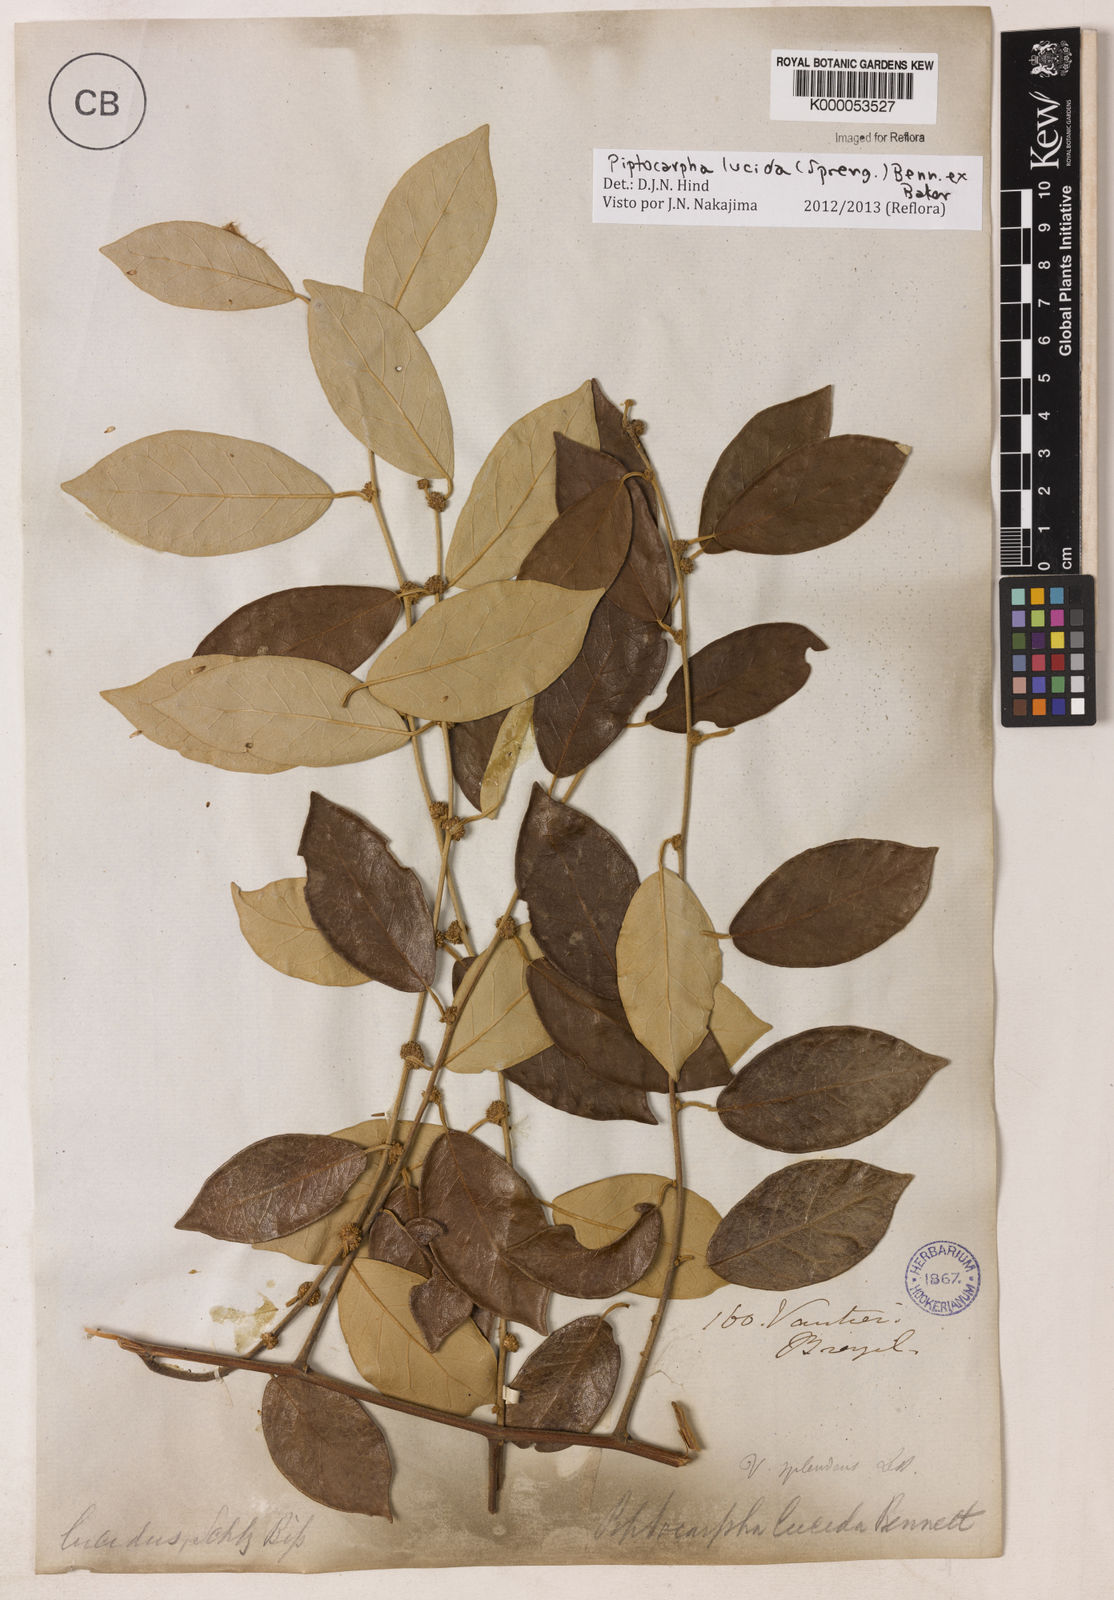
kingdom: Plantae
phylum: Tracheophyta
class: Magnoliopsida
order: Asterales
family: Asteraceae
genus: Piptocarpha
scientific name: Piptocarpha lucida
